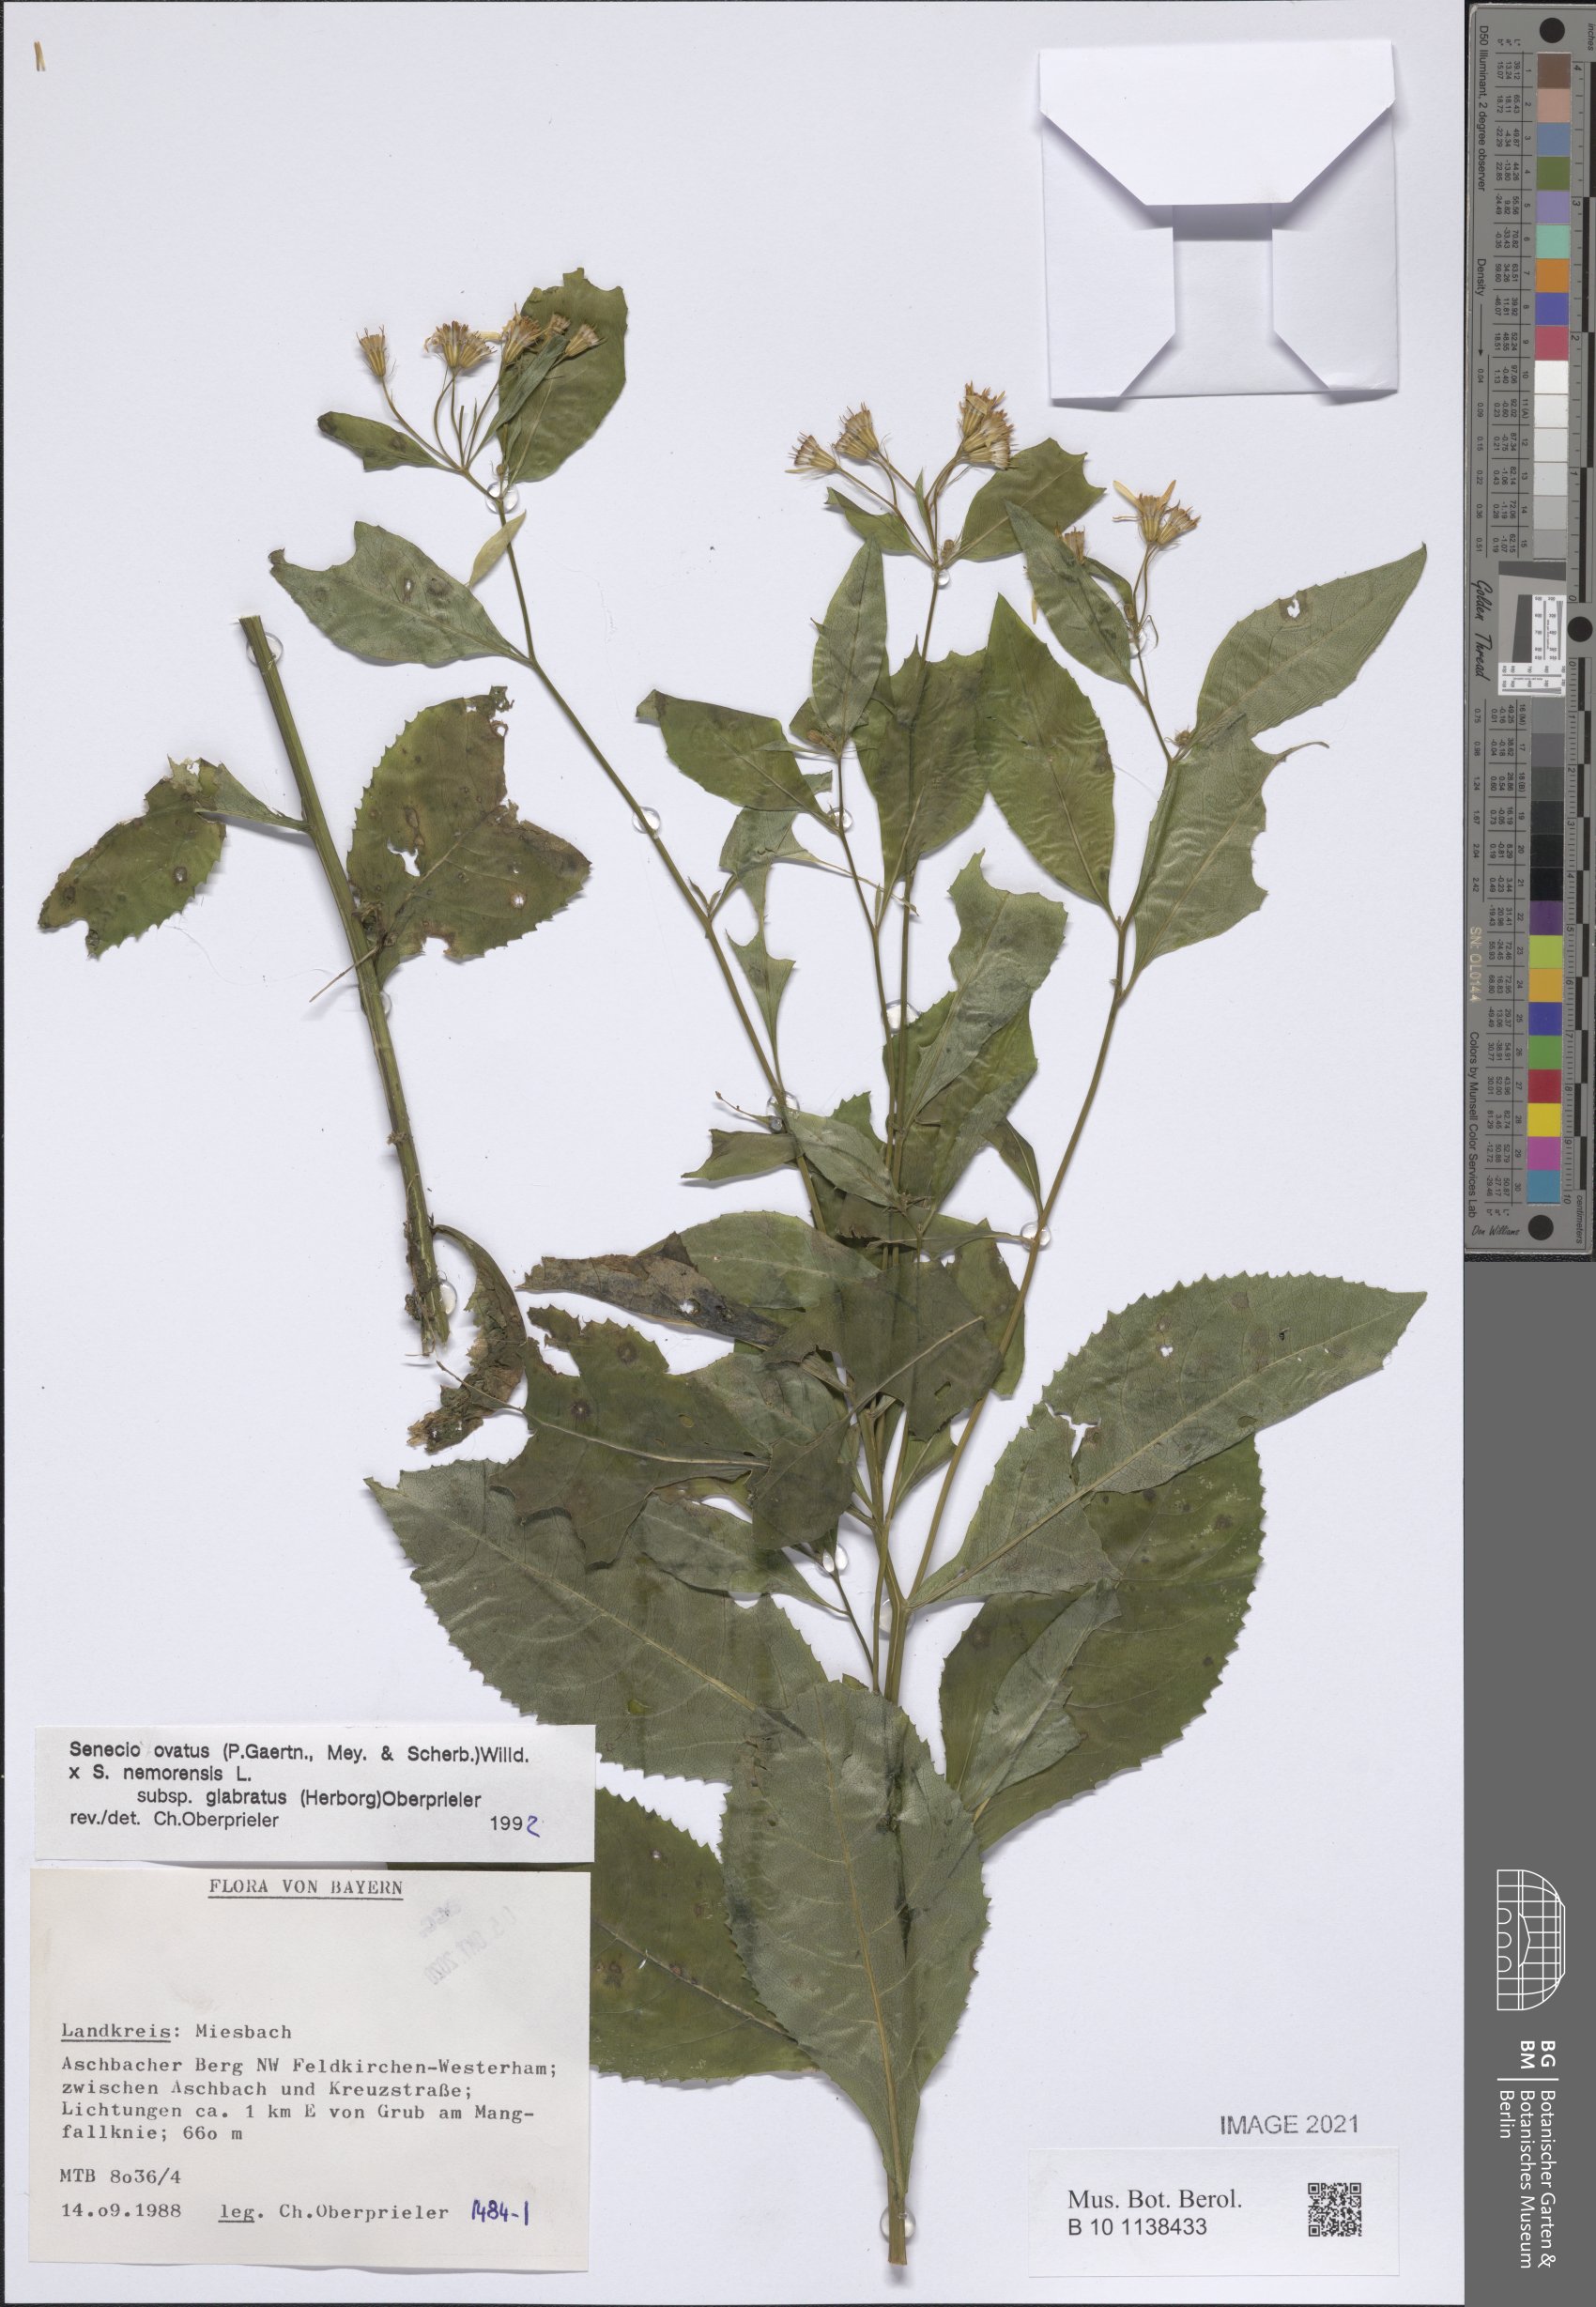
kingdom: Plantae
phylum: Tracheophyta
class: Magnoliopsida
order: Asterales
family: Asteraceae
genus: Senecio
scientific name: Senecio ovatus
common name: Wood ragwort
